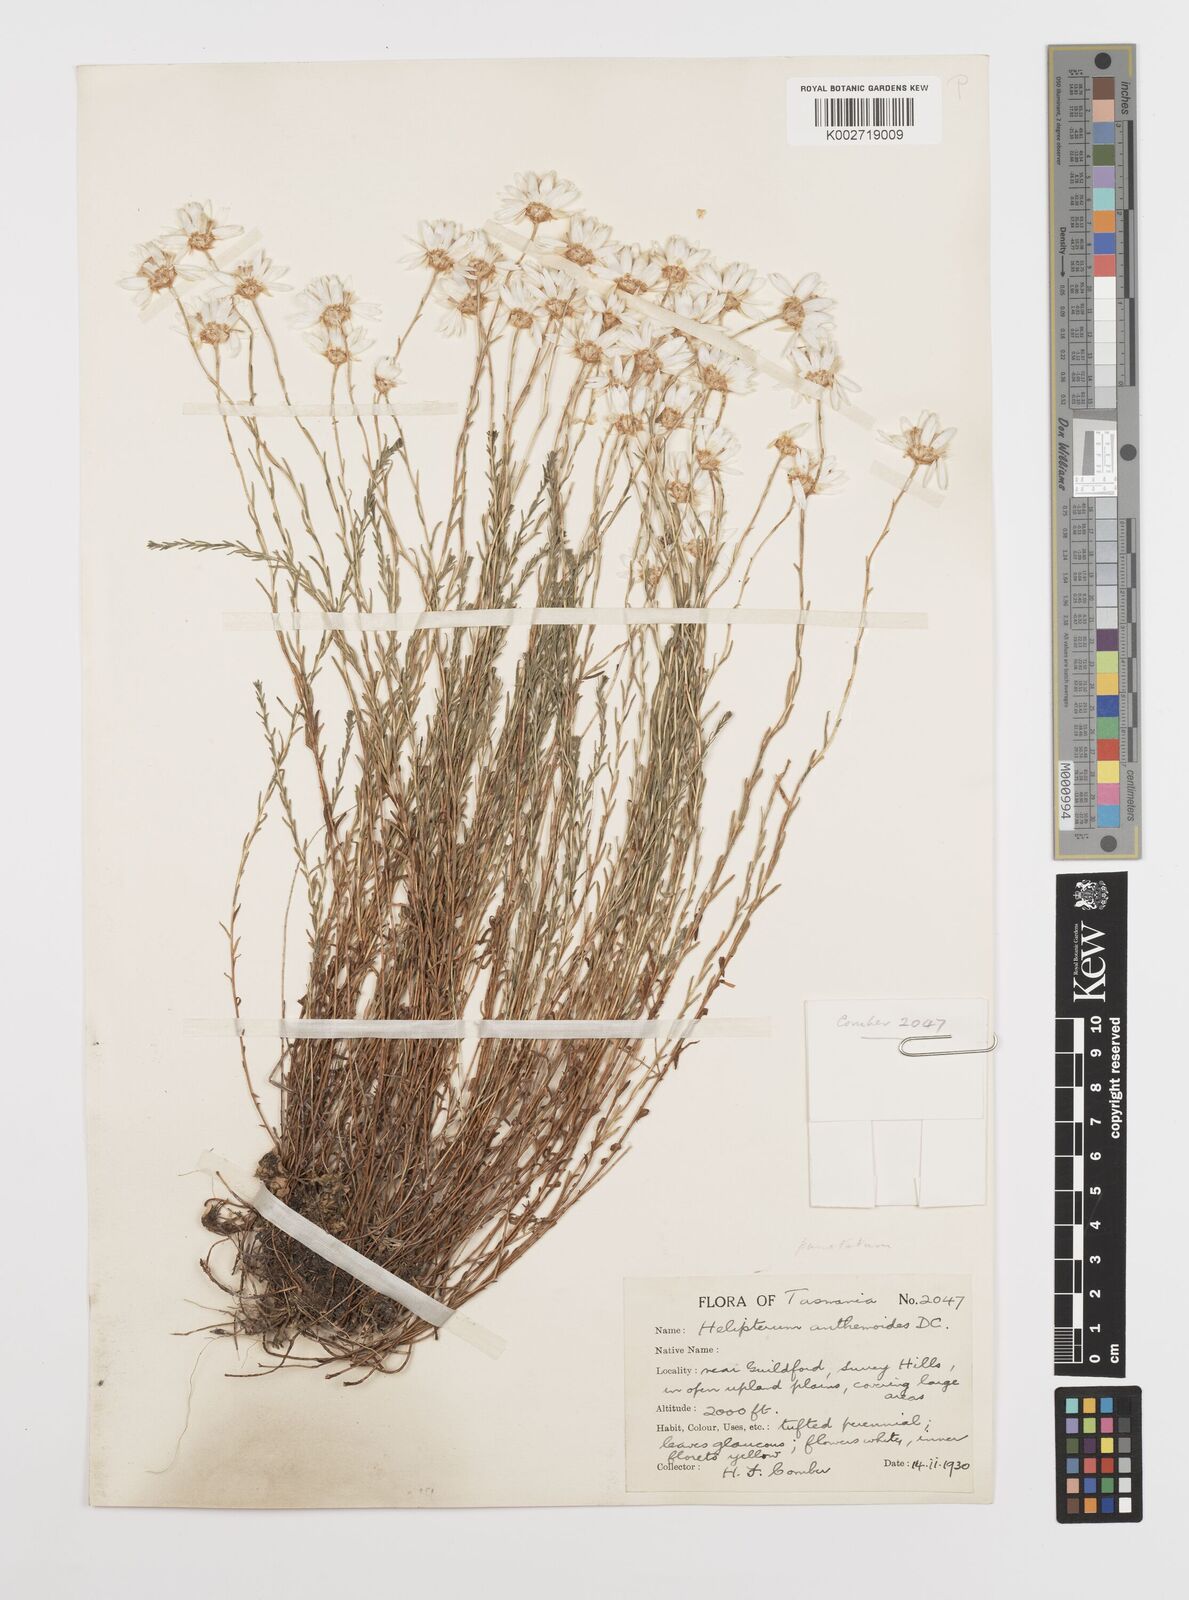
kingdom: Plantae
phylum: Tracheophyta
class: Magnoliopsida
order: Asterales
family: Asteraceae
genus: Rhodanthe
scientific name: Rhodanthe anthemoides
